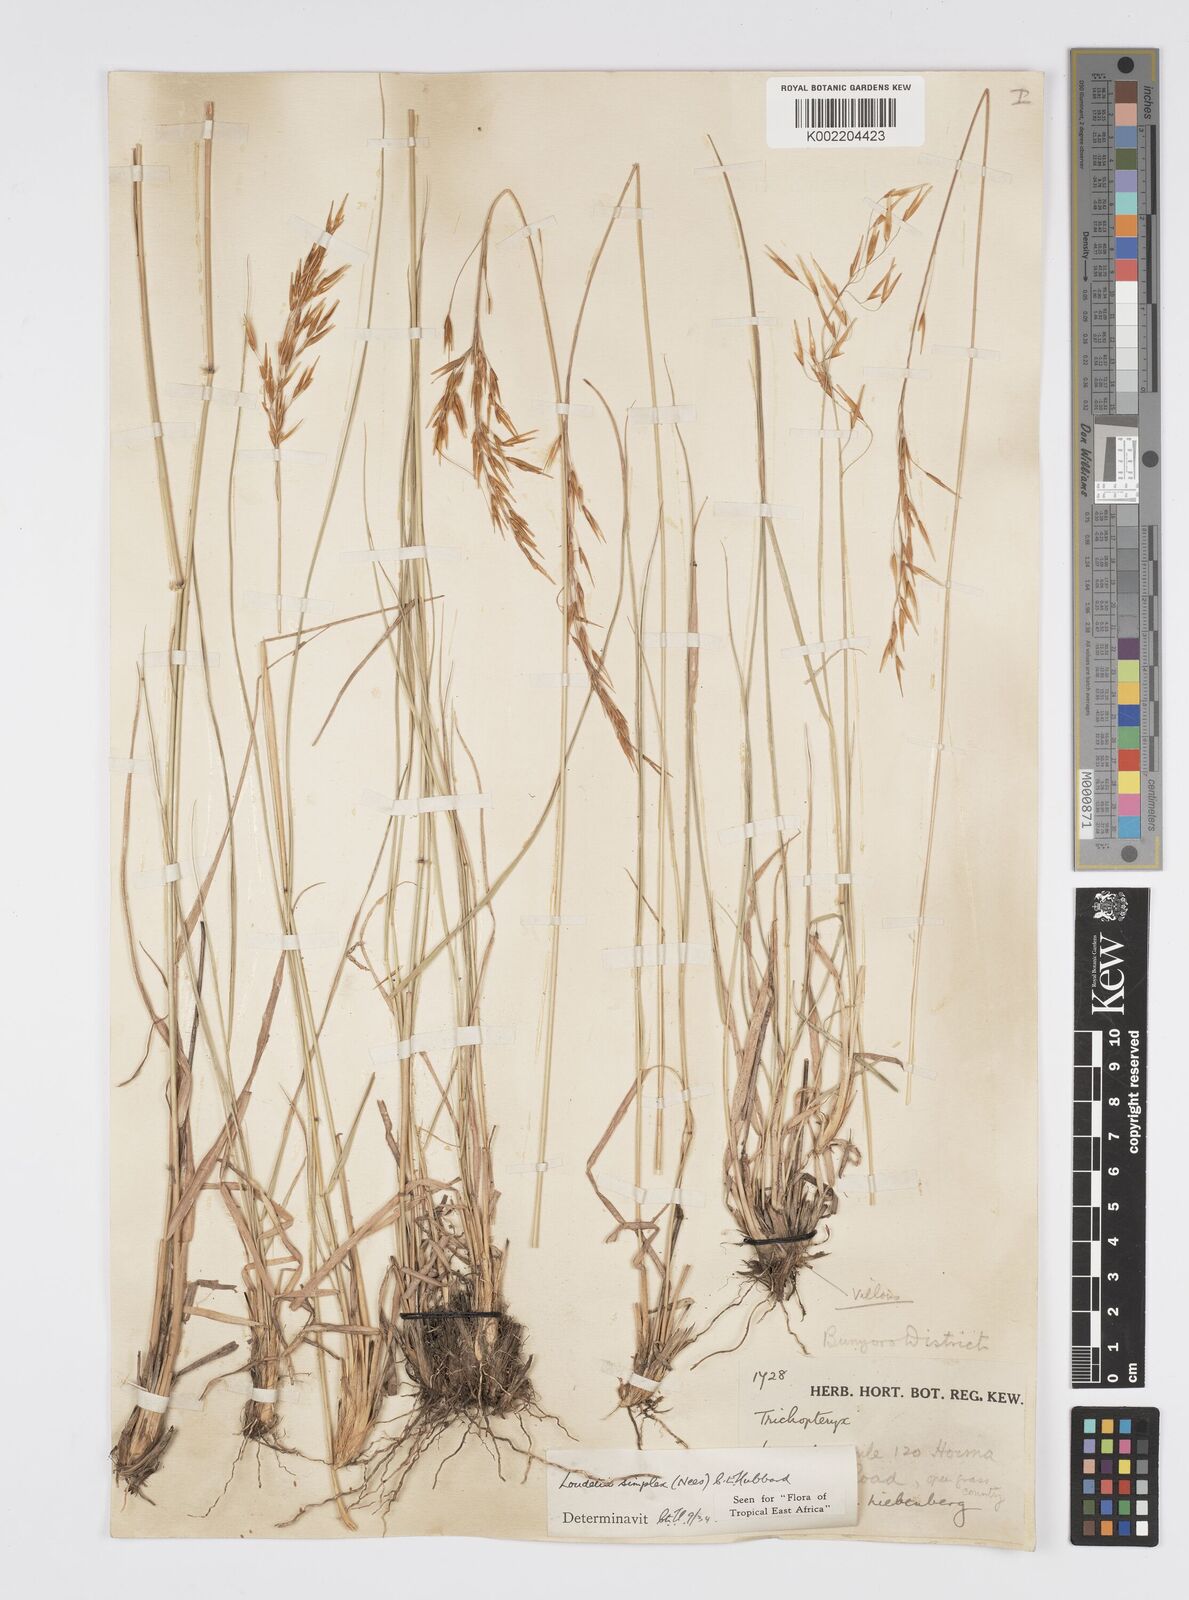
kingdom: Plantae
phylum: Tracheophyta
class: Liliopsida
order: Poales
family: Poaceae
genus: Loudetia
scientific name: Loudetia simplex
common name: Common russet grass
